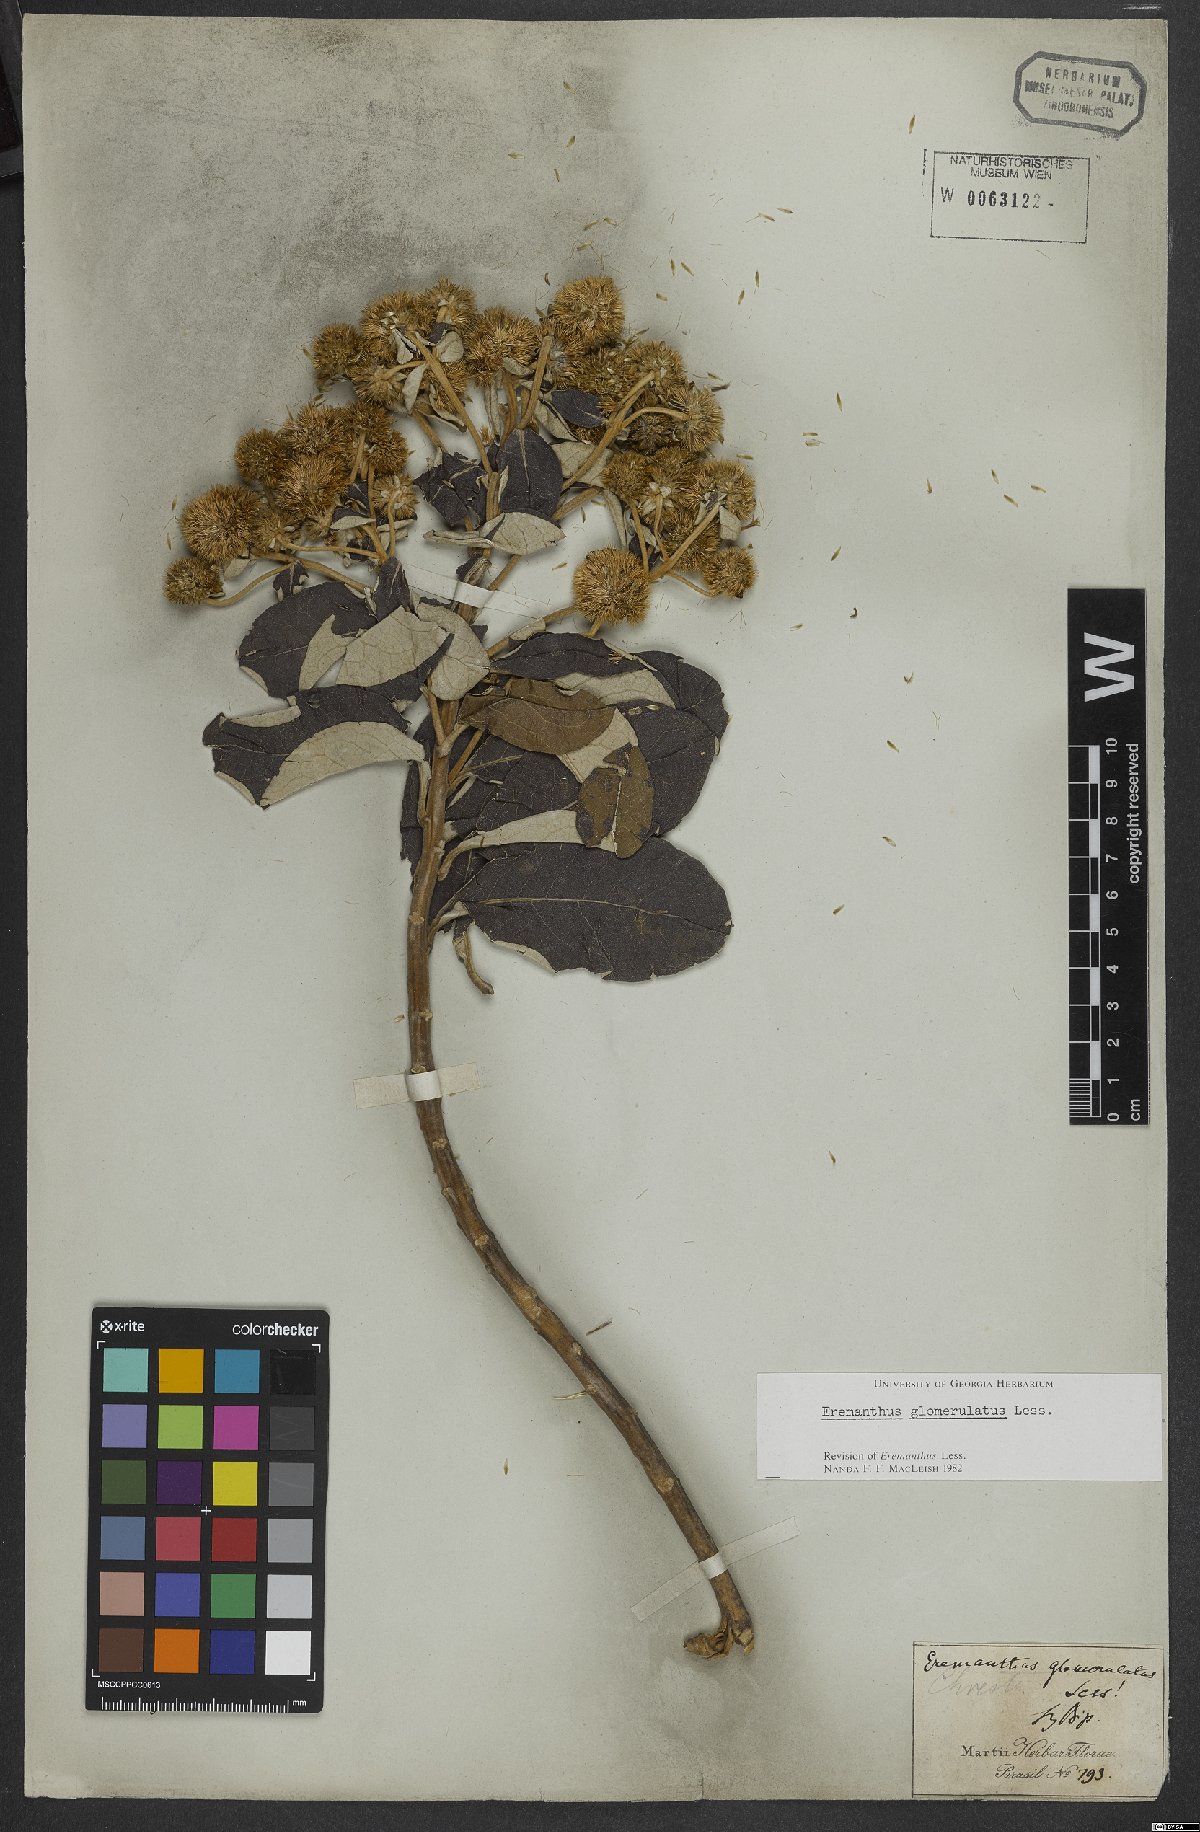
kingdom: Plantae
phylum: Tracheophyta
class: Magnoliopsida
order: Asterales
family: Asteraceae
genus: Eremanthus
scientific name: Eremanthus glomerulatus
